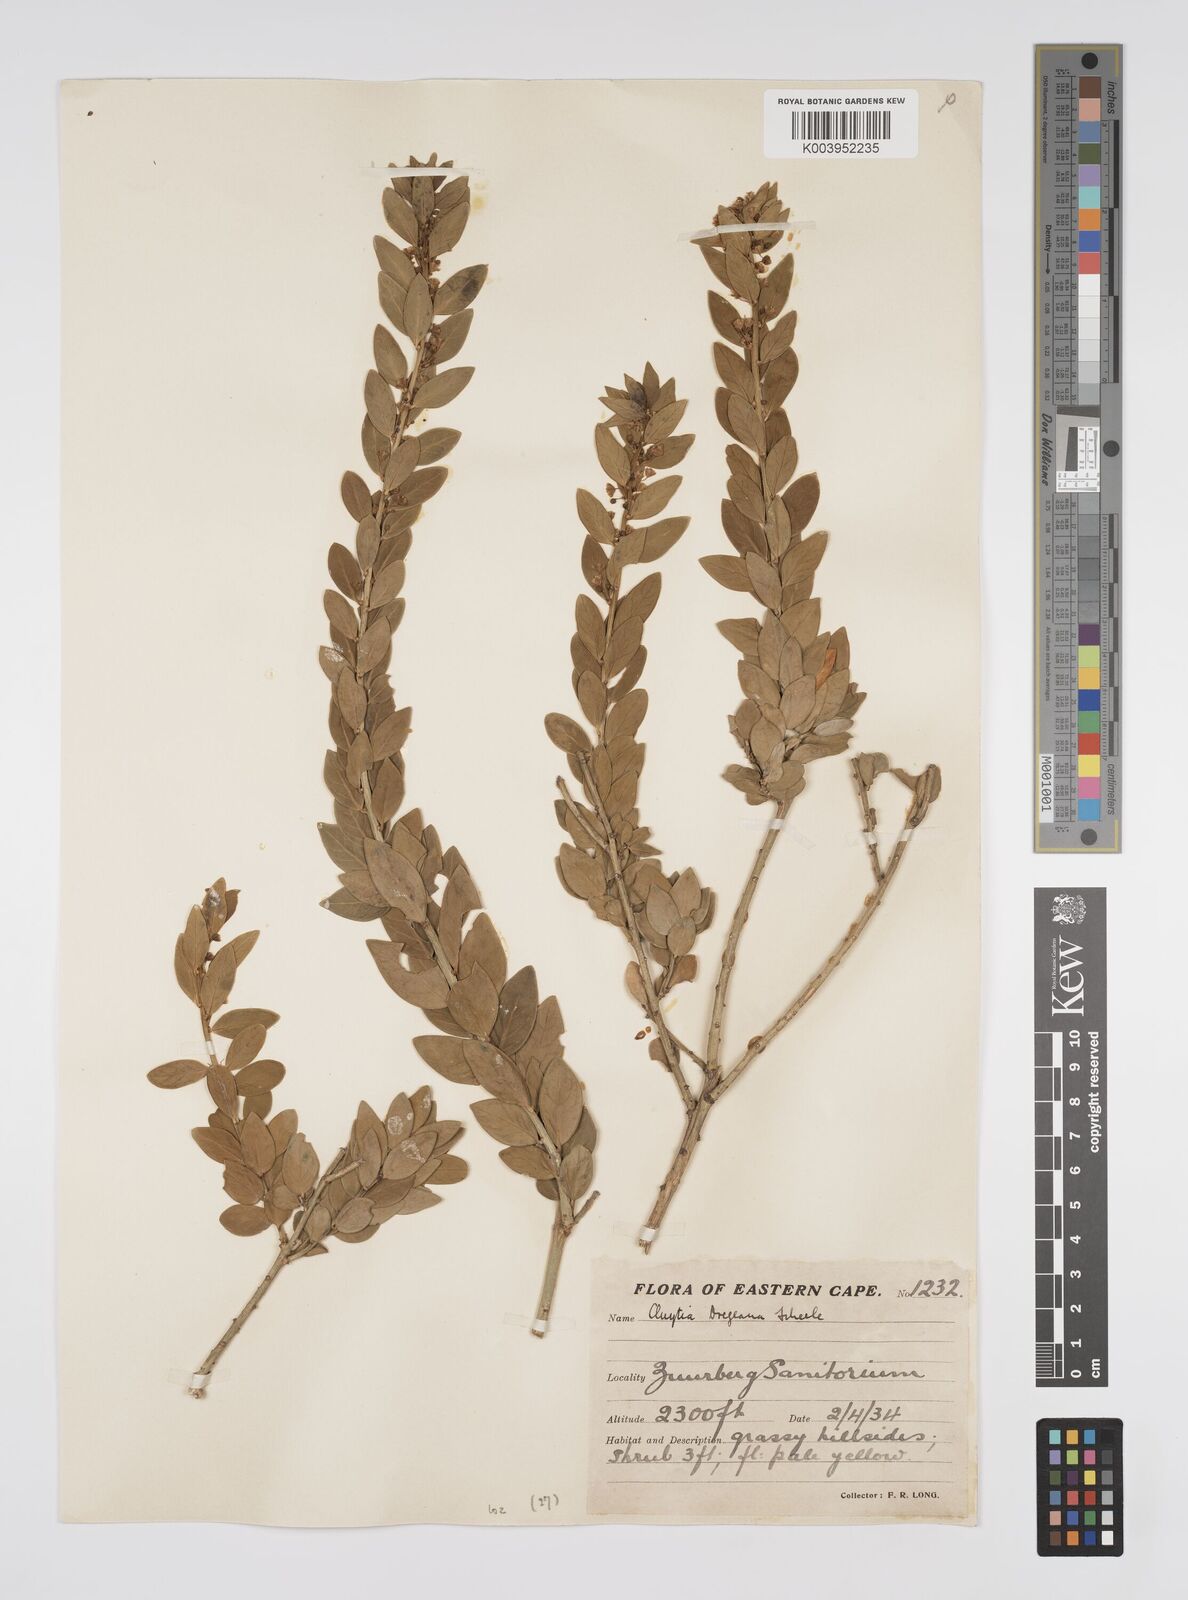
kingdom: Plantae
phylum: Tracheophyta
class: Magnoliopsida
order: Malpighiales
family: Peraceae
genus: Clutia
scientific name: Clutia dregeana
